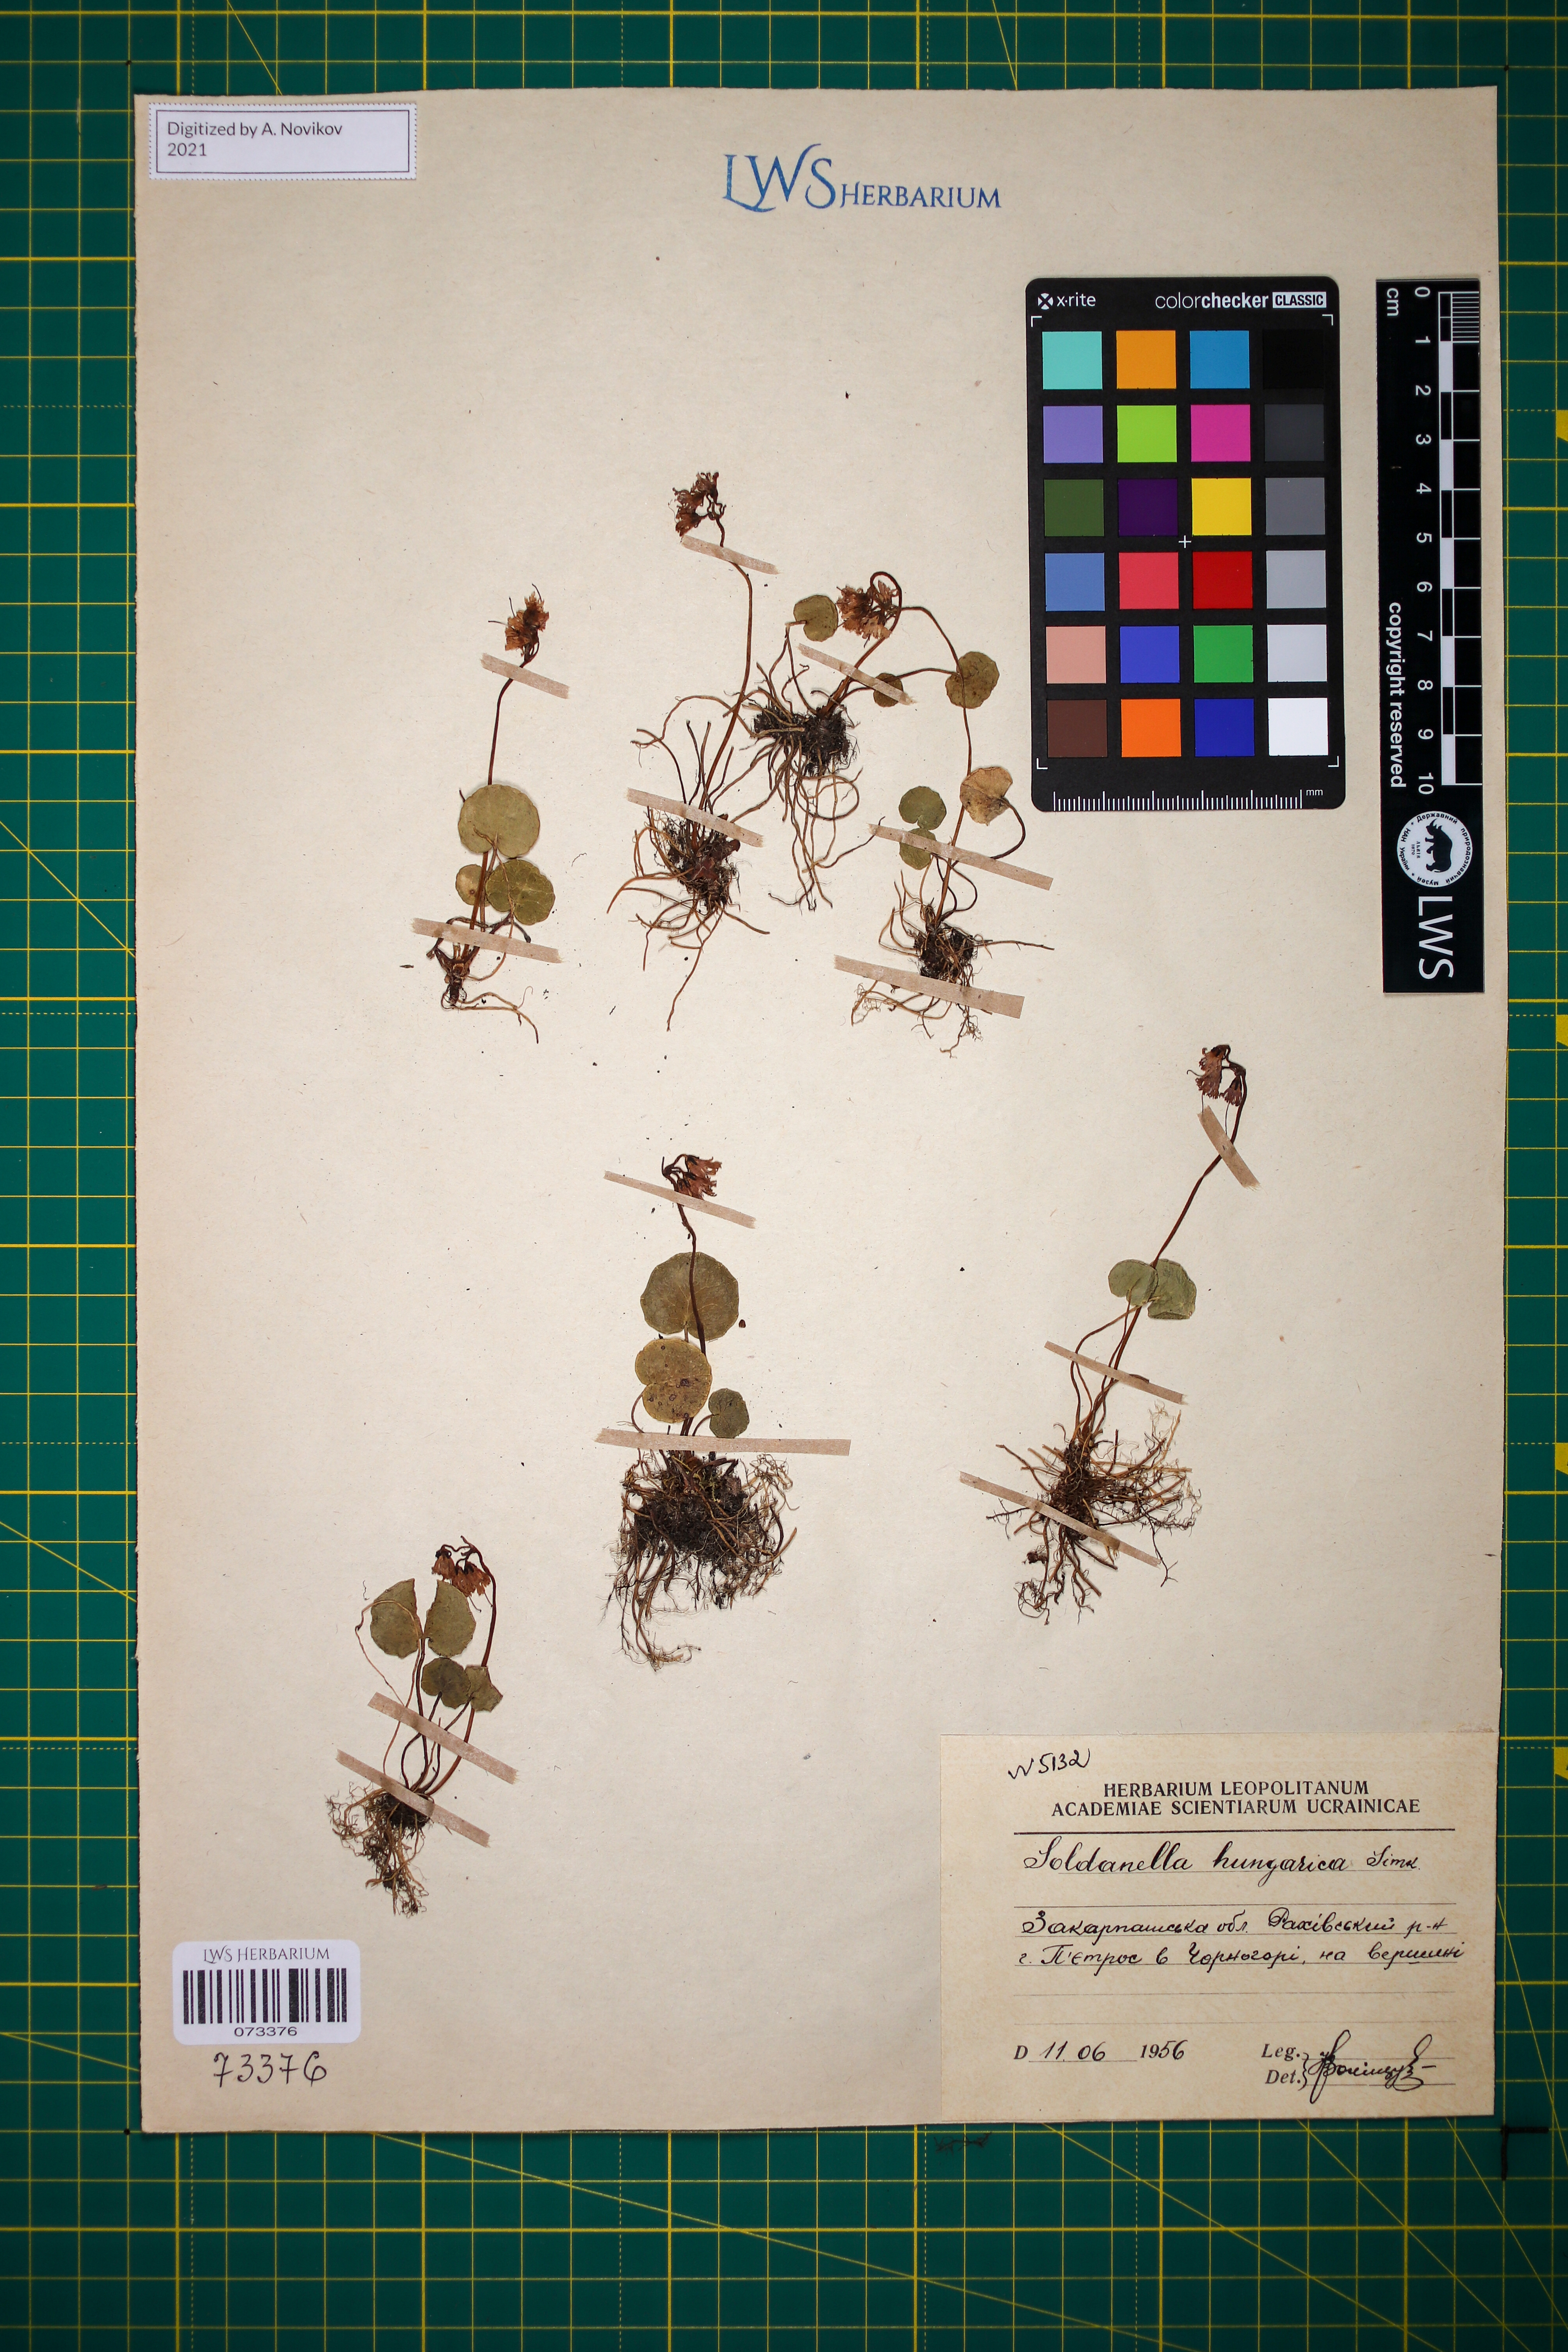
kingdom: Plantae
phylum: Tracheophyta
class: Magnoliopsida
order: Ericales
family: Primulaceae
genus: Soldanella
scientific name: Soldanella hungarica
